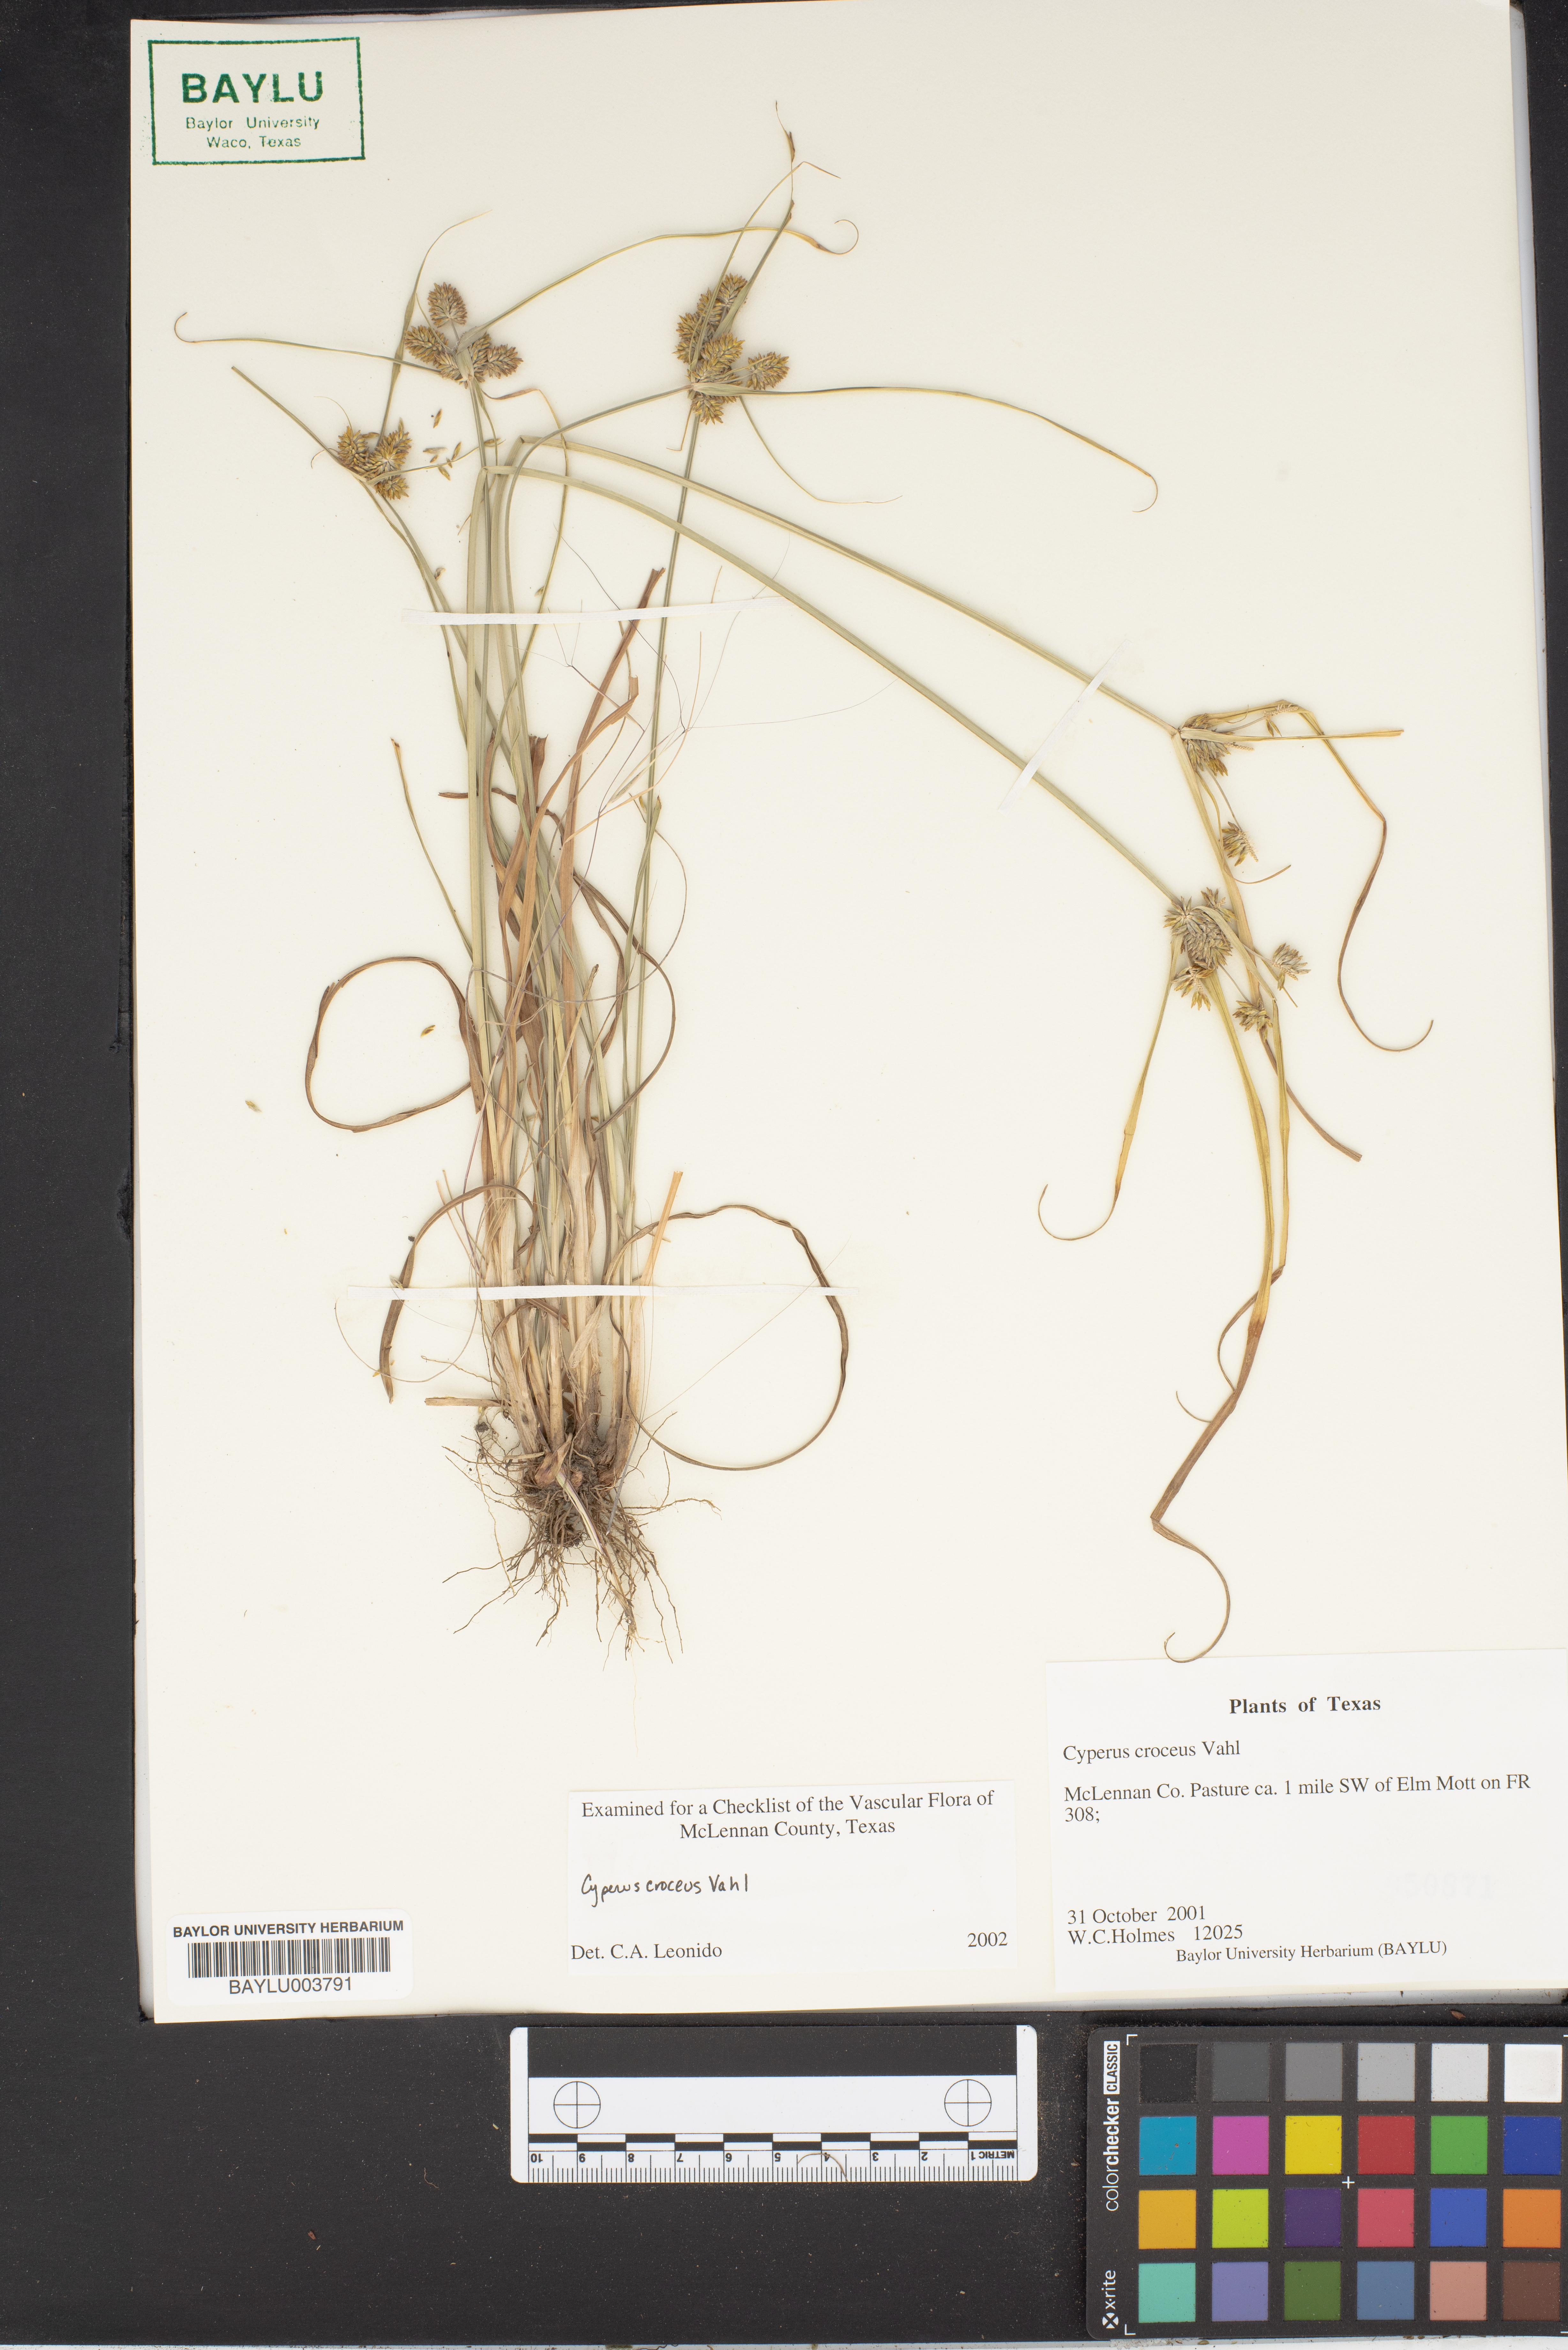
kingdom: Plantae
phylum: Tracheophyta
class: Liliopsida
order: Poales
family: Cyperaceae
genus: Cyperus
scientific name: Cyperus croceus
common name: Baldwin's flatsedge
